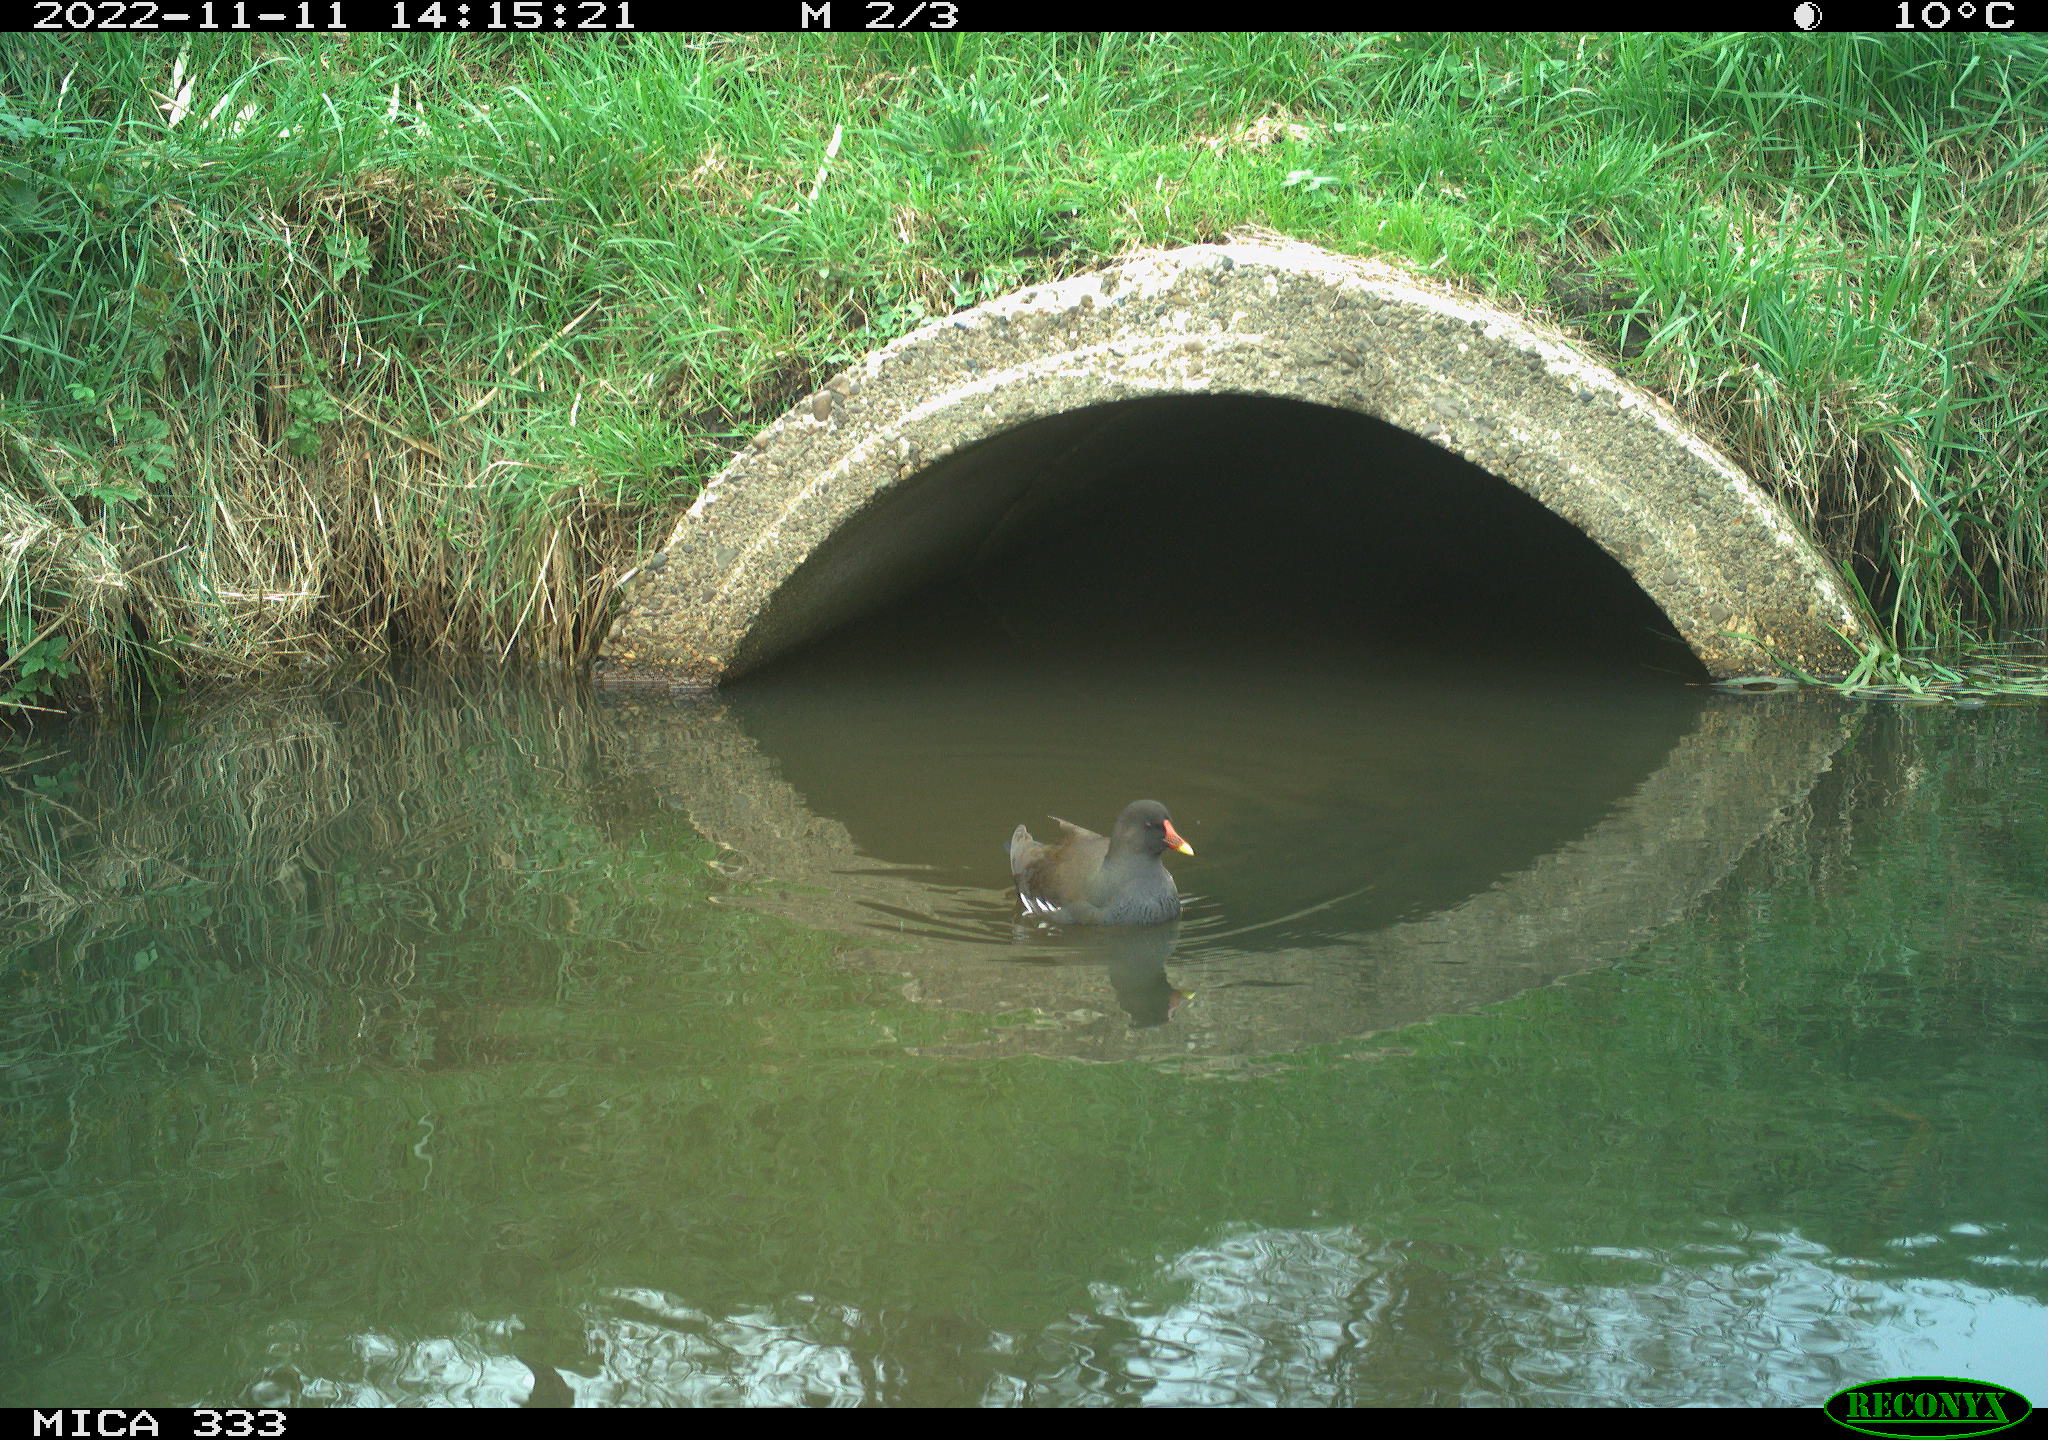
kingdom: Animalia
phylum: Chordata
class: Aves
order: Gruiformes
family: Rallidae
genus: Gallinula
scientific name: Gallinula chloropus
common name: Common moorhen
